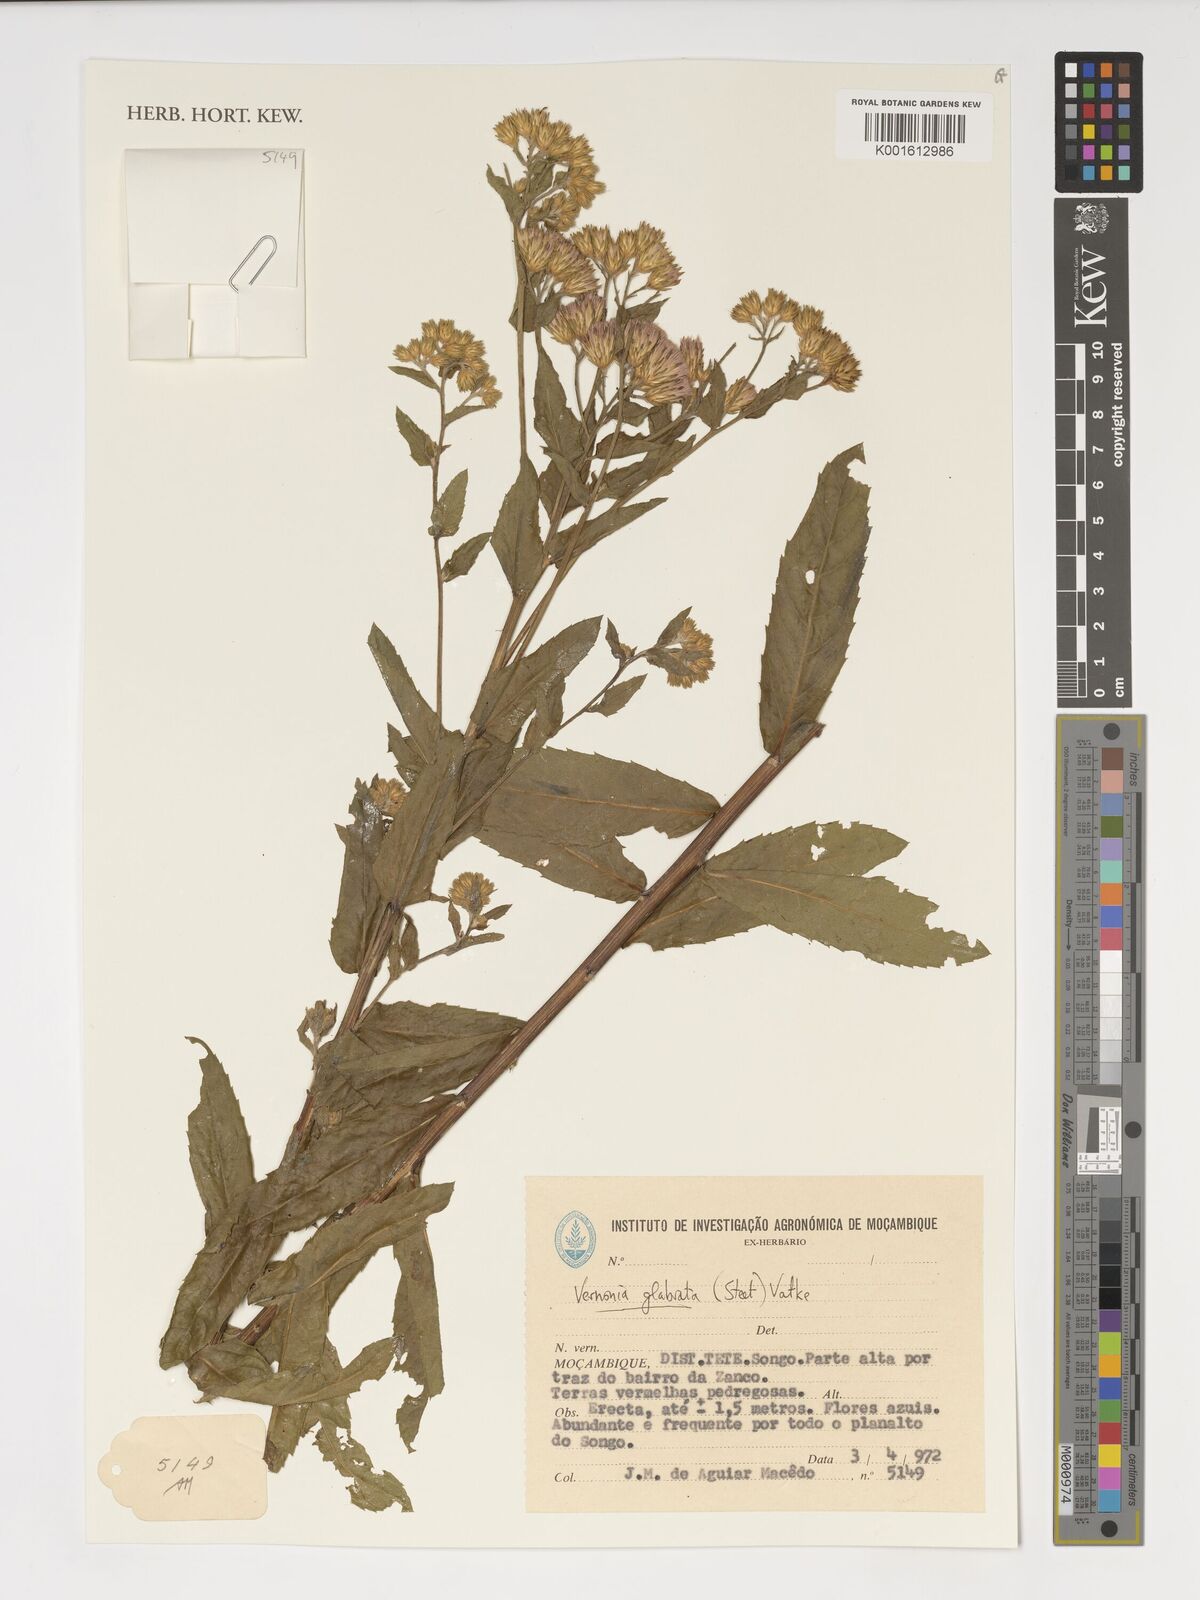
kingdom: Plantae
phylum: Tracheophyta
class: Magnoliopsida
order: Asterales
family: Asteraceae
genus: Lessingianthus
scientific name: Lessingianthus glabratus
